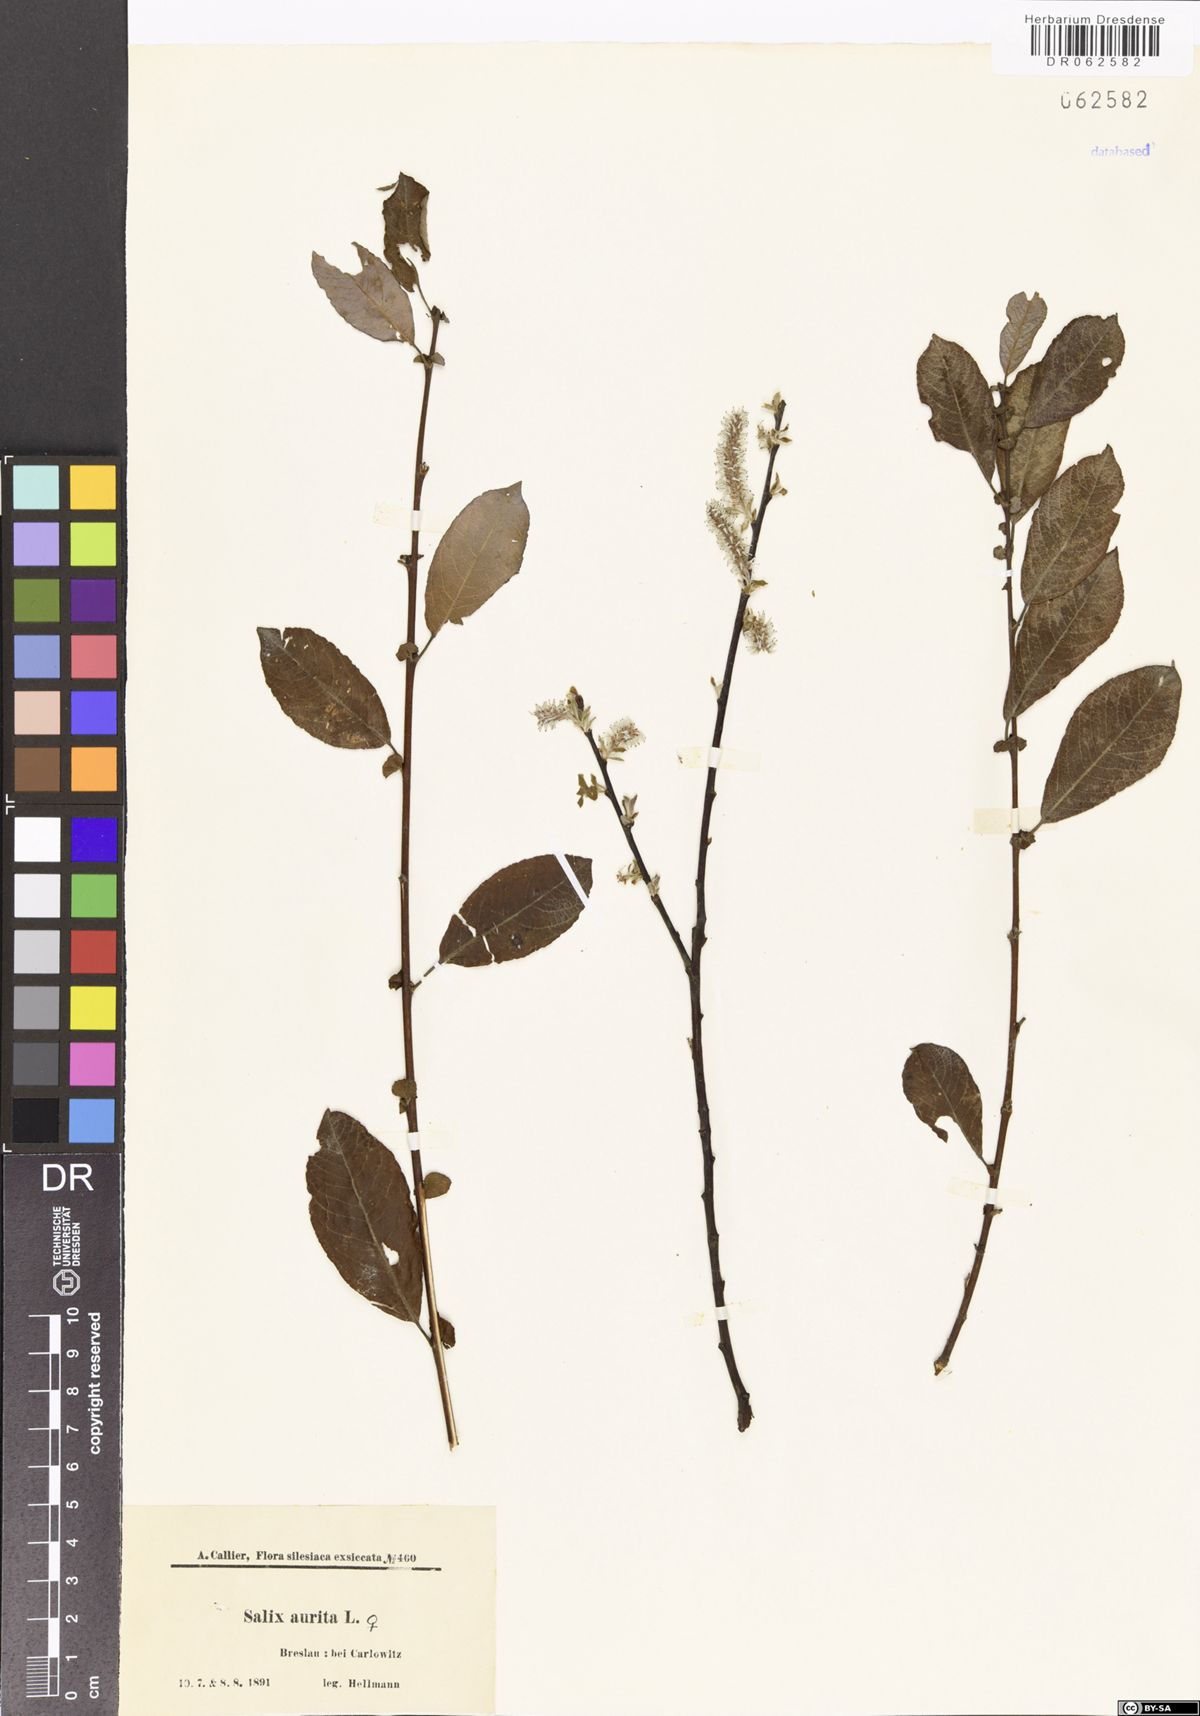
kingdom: Plantae
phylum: Tracheophyta
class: Magnoliopsida
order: Malpighiales
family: Salicaceae
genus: Salix
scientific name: Salix aurita
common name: Eared willow
